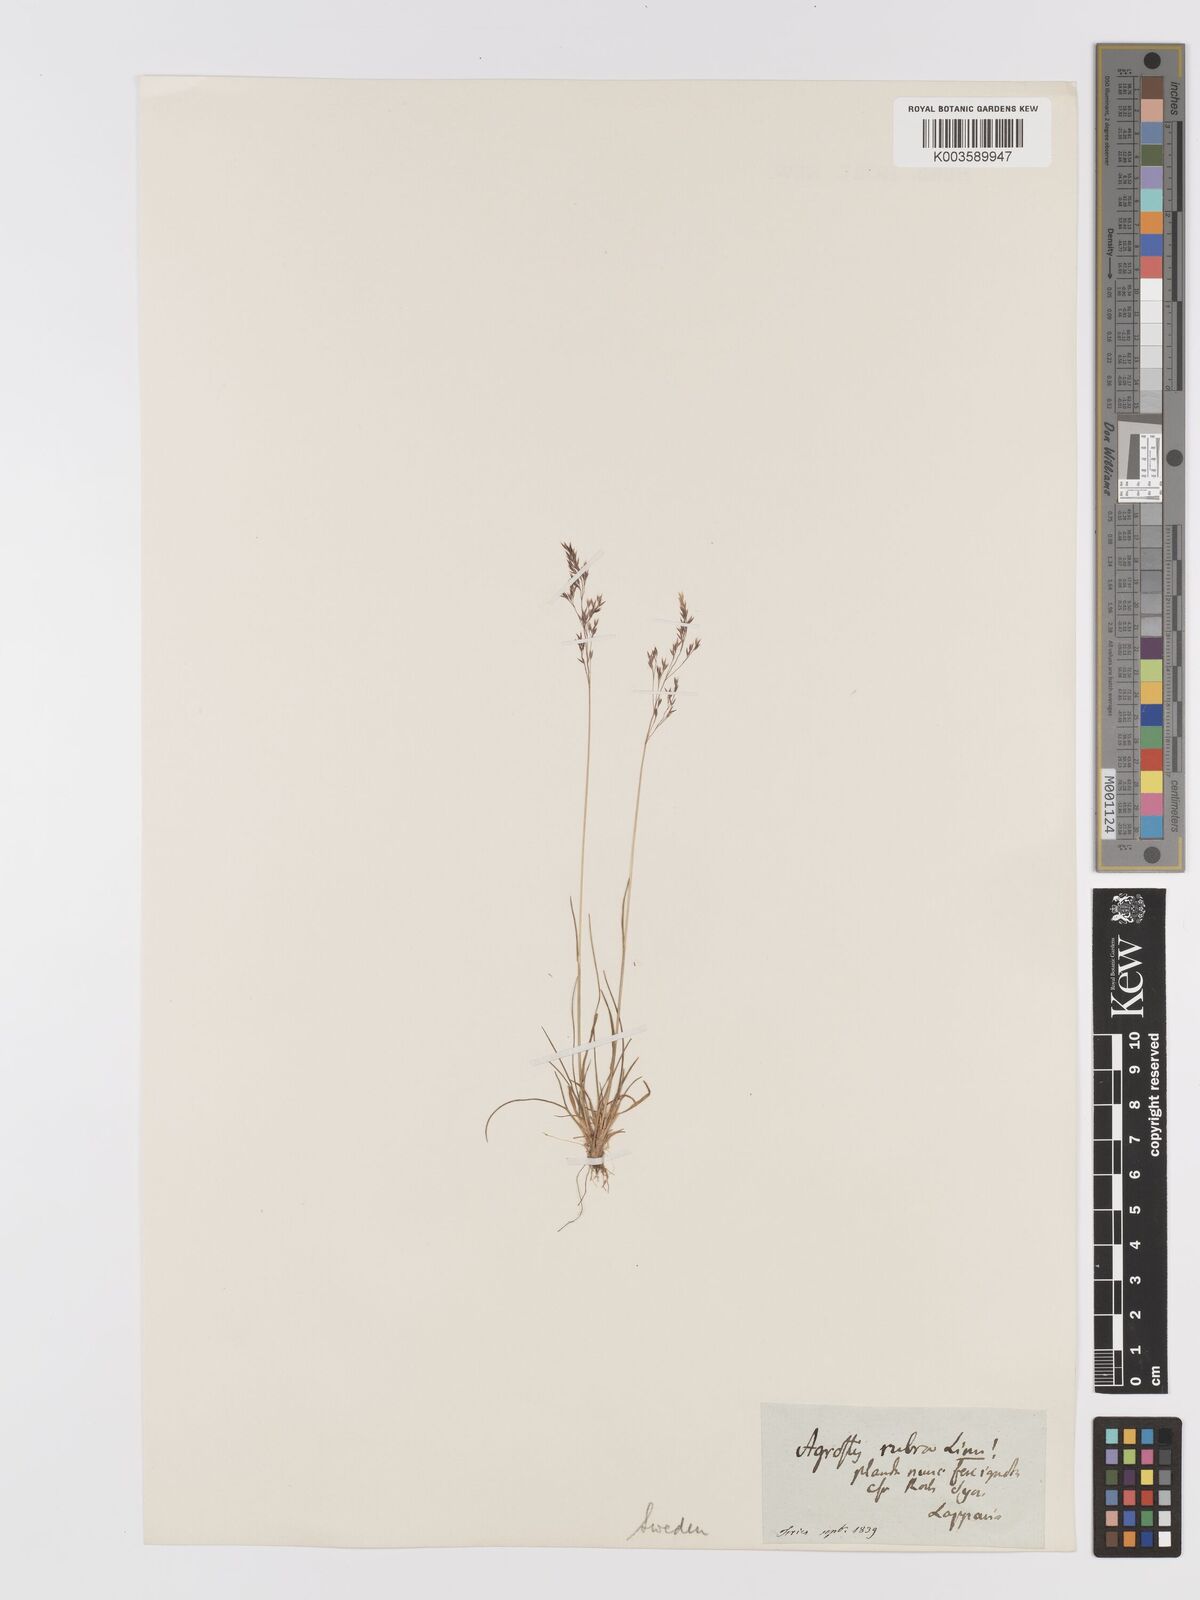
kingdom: Plantae
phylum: Tracheophyta
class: Liliopsida
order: Poales
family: Poaceae
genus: Agrostis
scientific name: Agrostis mertensii
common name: Northern bent
